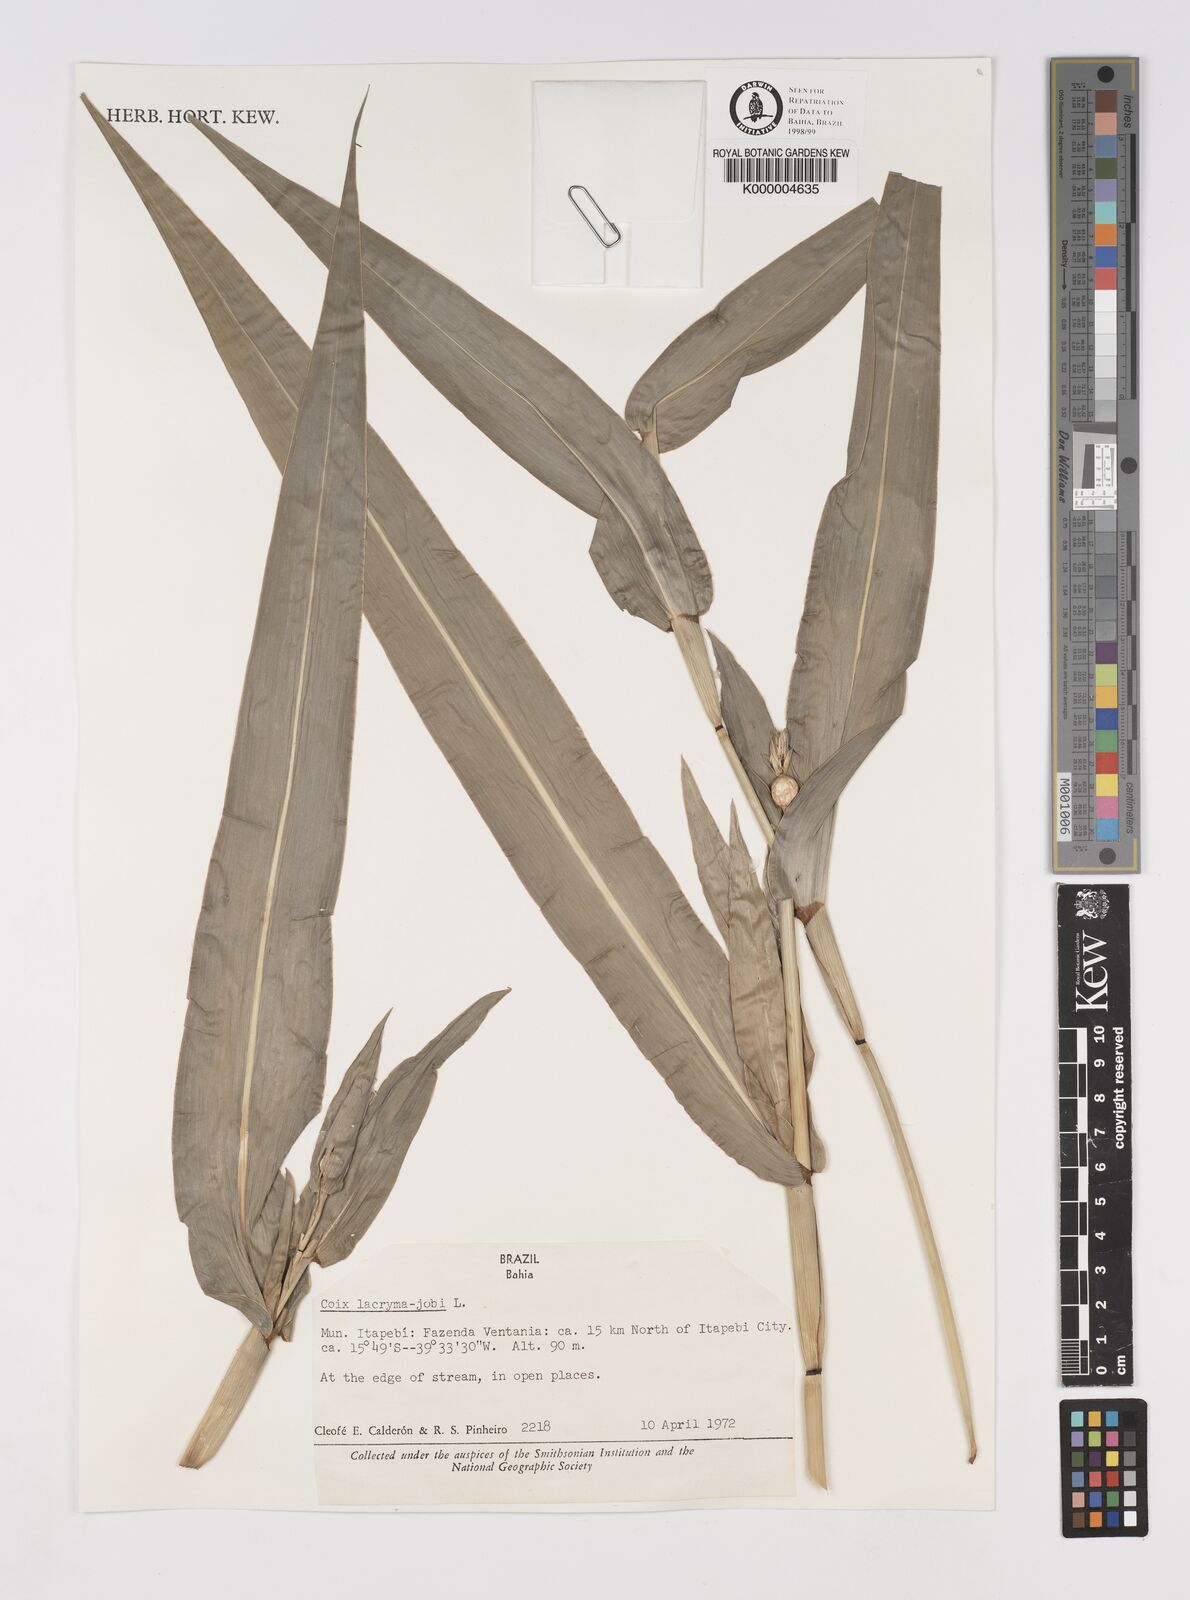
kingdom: Plantae
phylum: Tracheophyta
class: Liliopsida
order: Poales
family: Poaceae
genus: Coix
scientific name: Coix lacryma-jobi
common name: Job's tears
